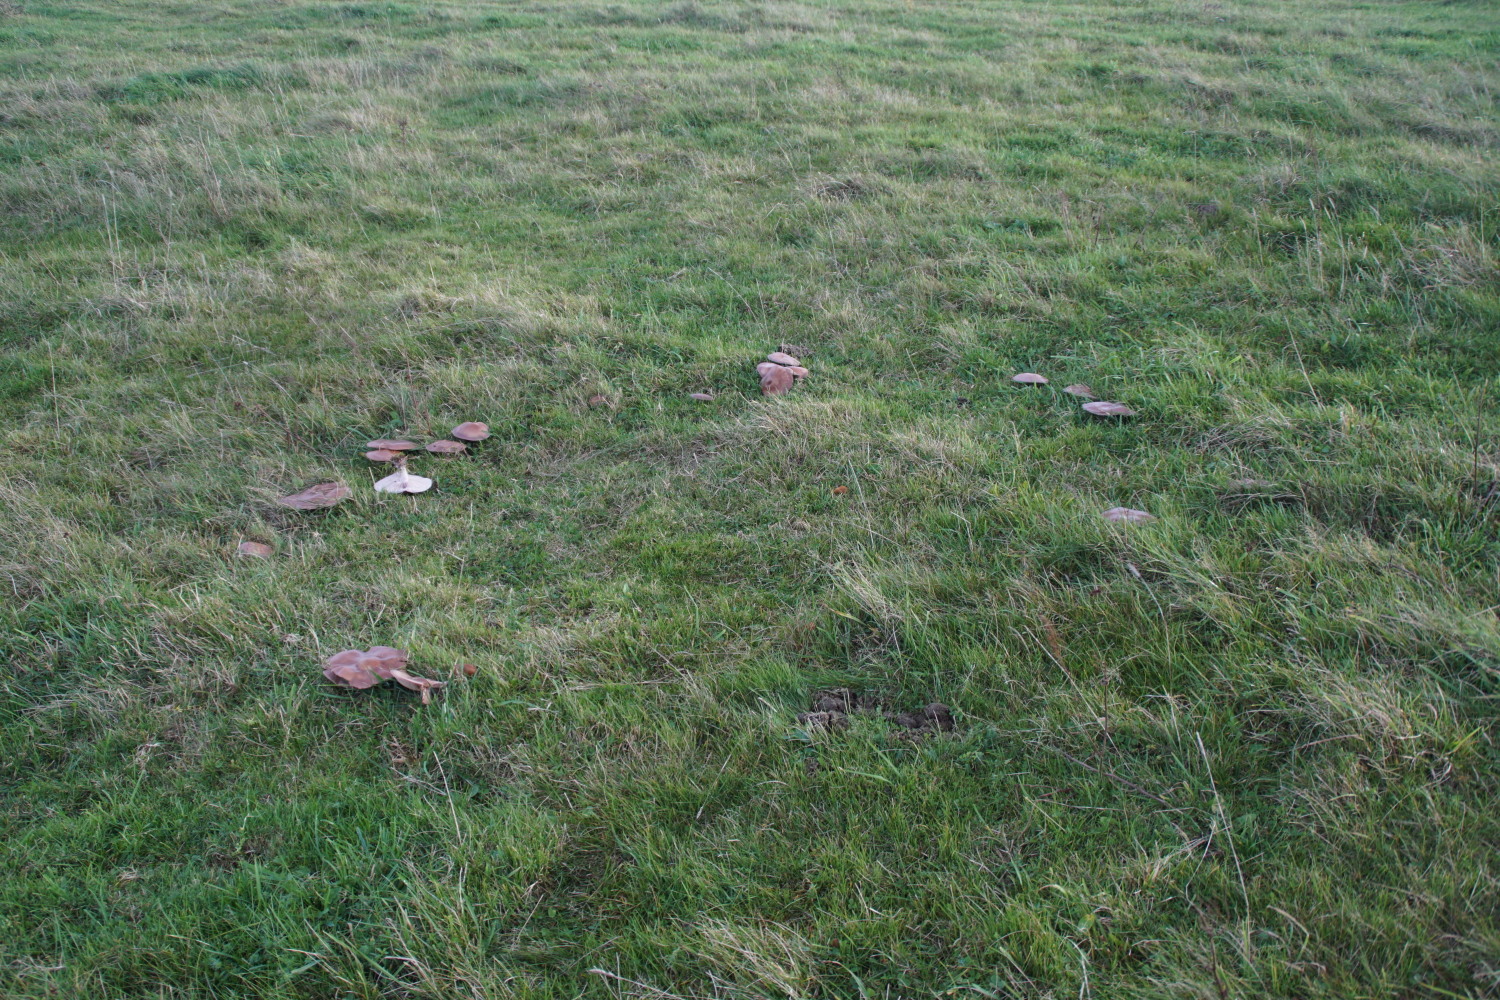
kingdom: Fungi
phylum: Basidiomycota
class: Agaricomycetes
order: Agaricales
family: Tricholomataceae
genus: Lepista
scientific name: Lepista nuda
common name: violet hekseringshat
